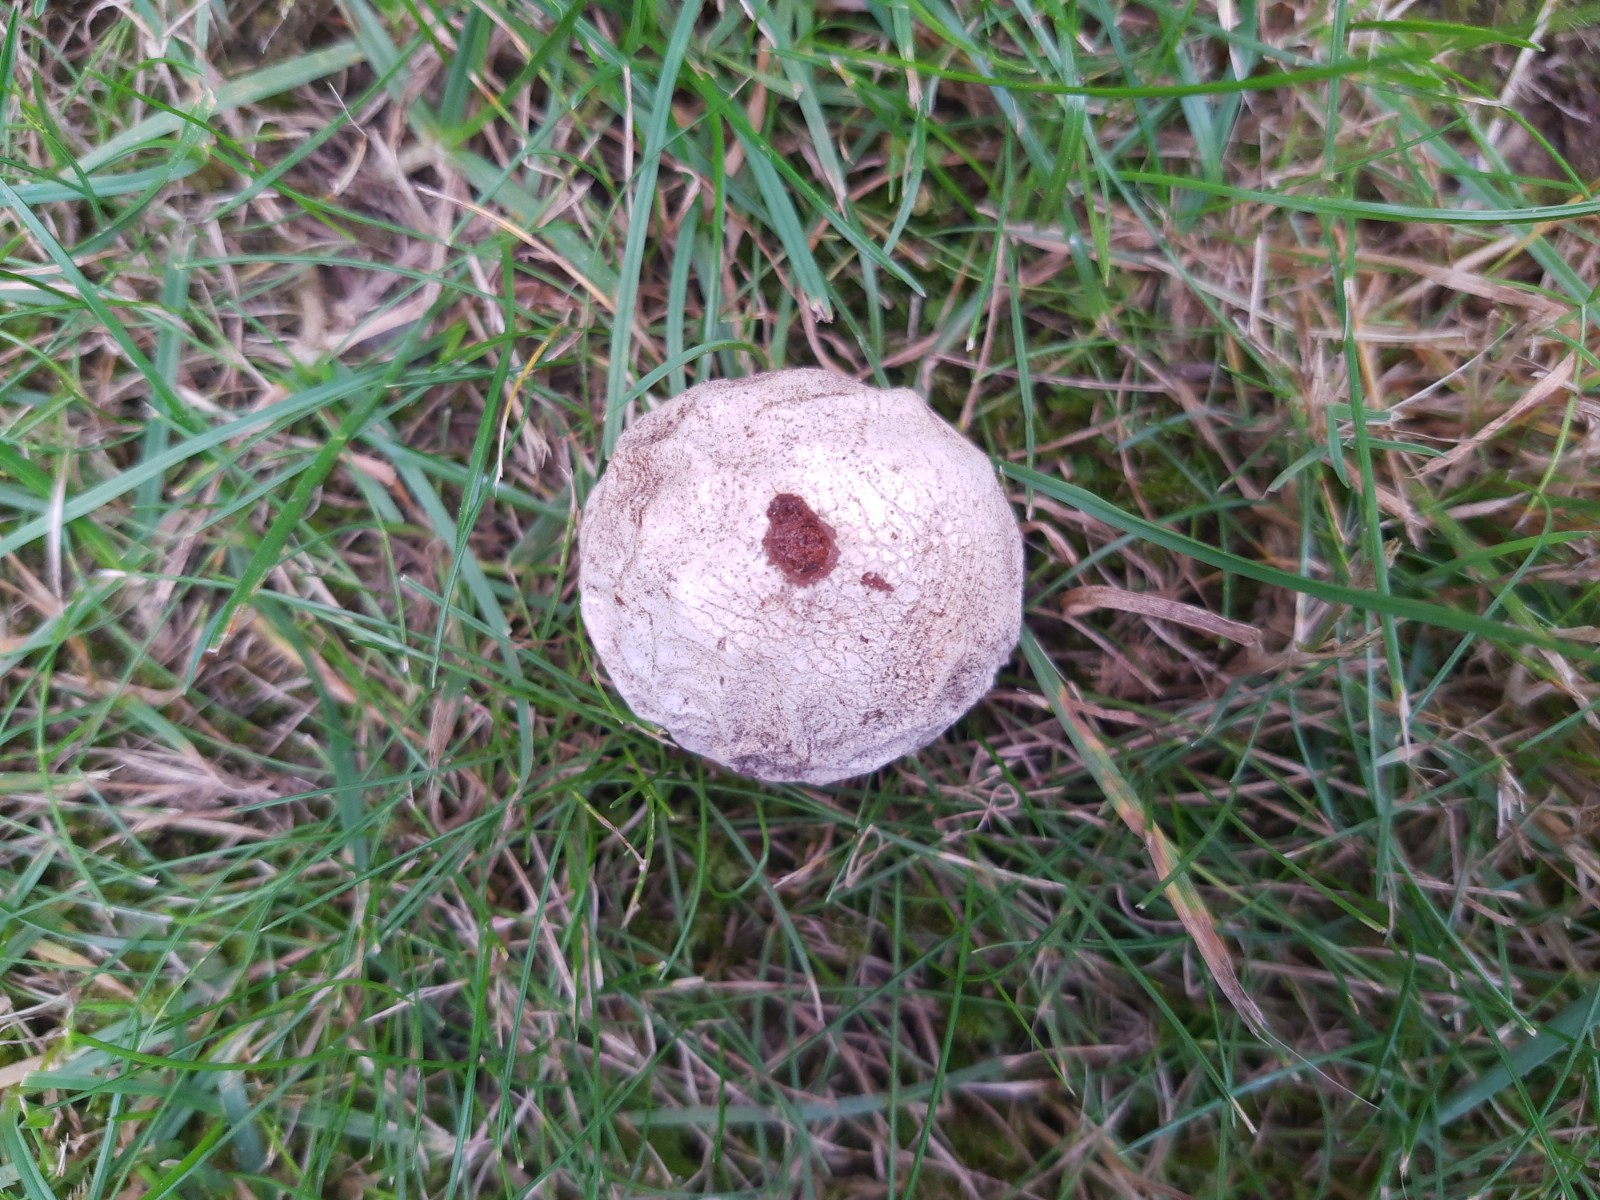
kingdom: Fungi
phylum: Basidiomycota
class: Agaricomycetes
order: Phallales
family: Phallaceae
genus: Phallus
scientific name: Phallus impudicus
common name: almindelig stinksvamp
